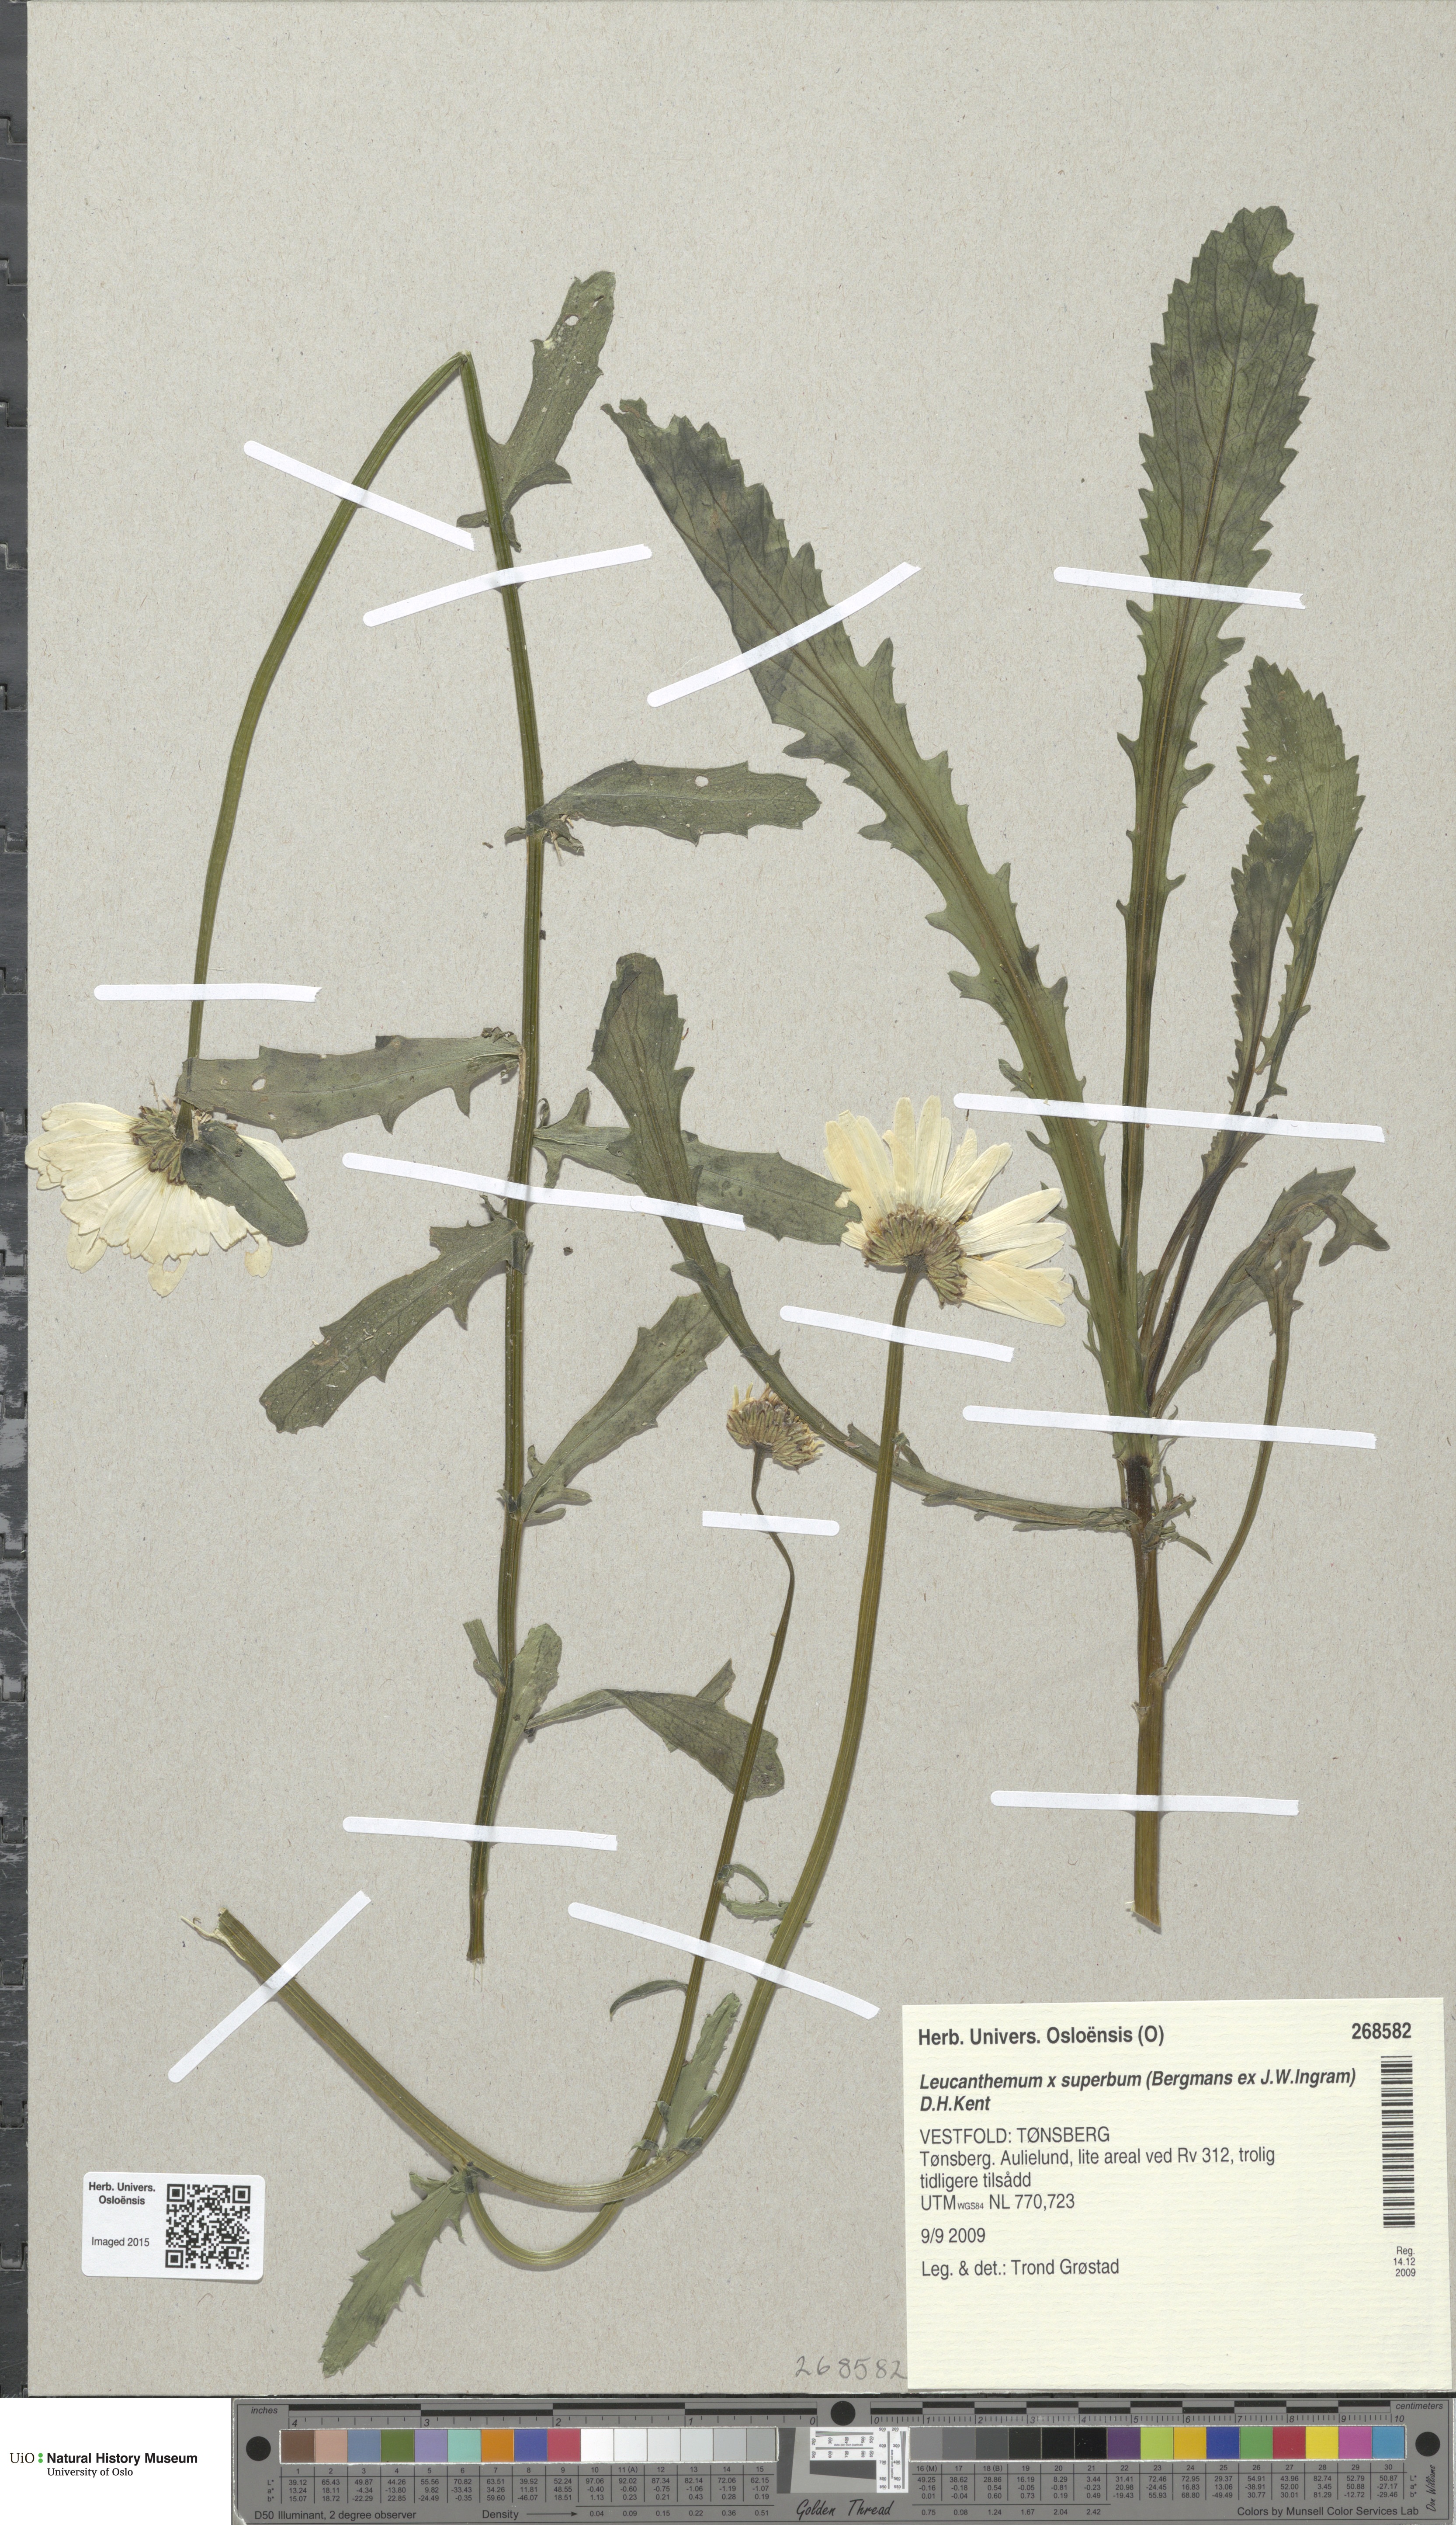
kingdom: Plantae
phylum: Tracheophyta
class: Magnoliopsida
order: Asterales
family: Asteraceae
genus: Leucanthemum
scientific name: Leucanthemum superbum
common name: Shasta daisy
